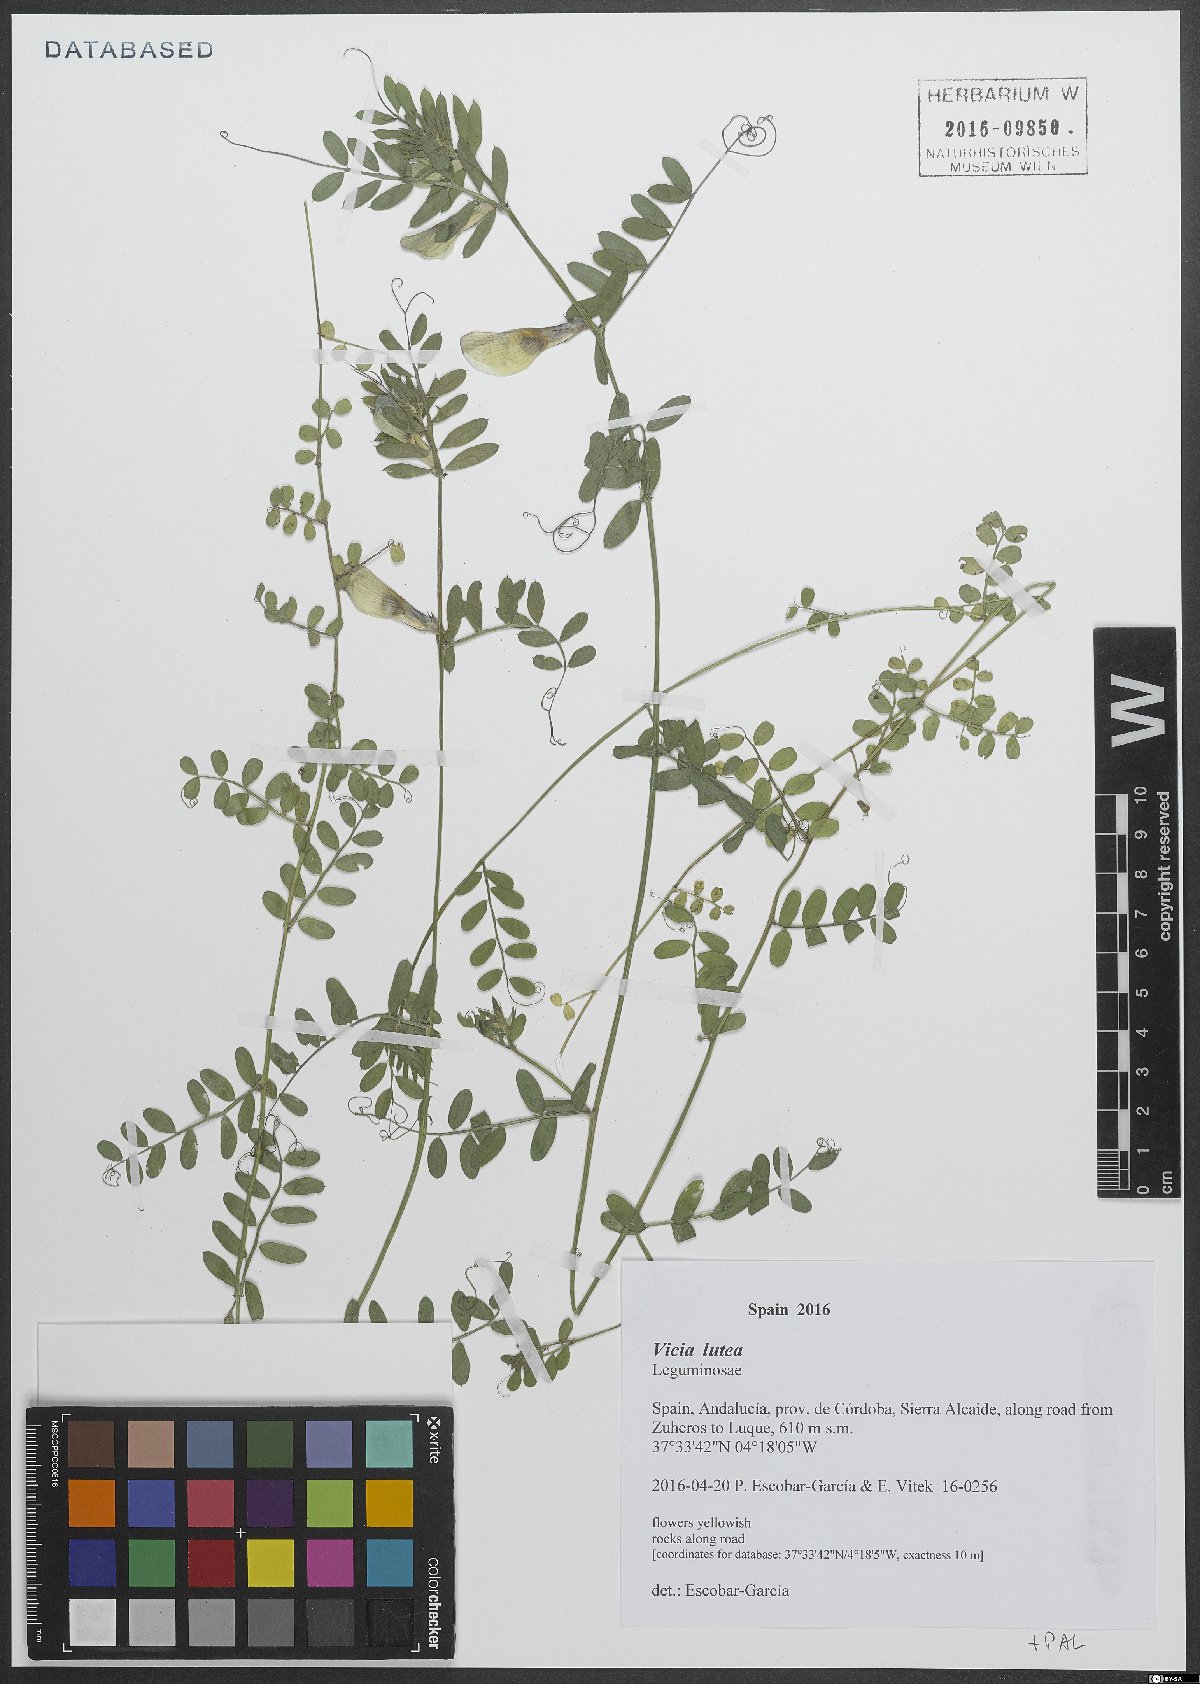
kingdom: Plantae
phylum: Tracheophyta
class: Magnoliopsida
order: Fabales
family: Fabaceae
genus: Vicia
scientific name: Vicia lutea
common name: Smooth yellow vetch
